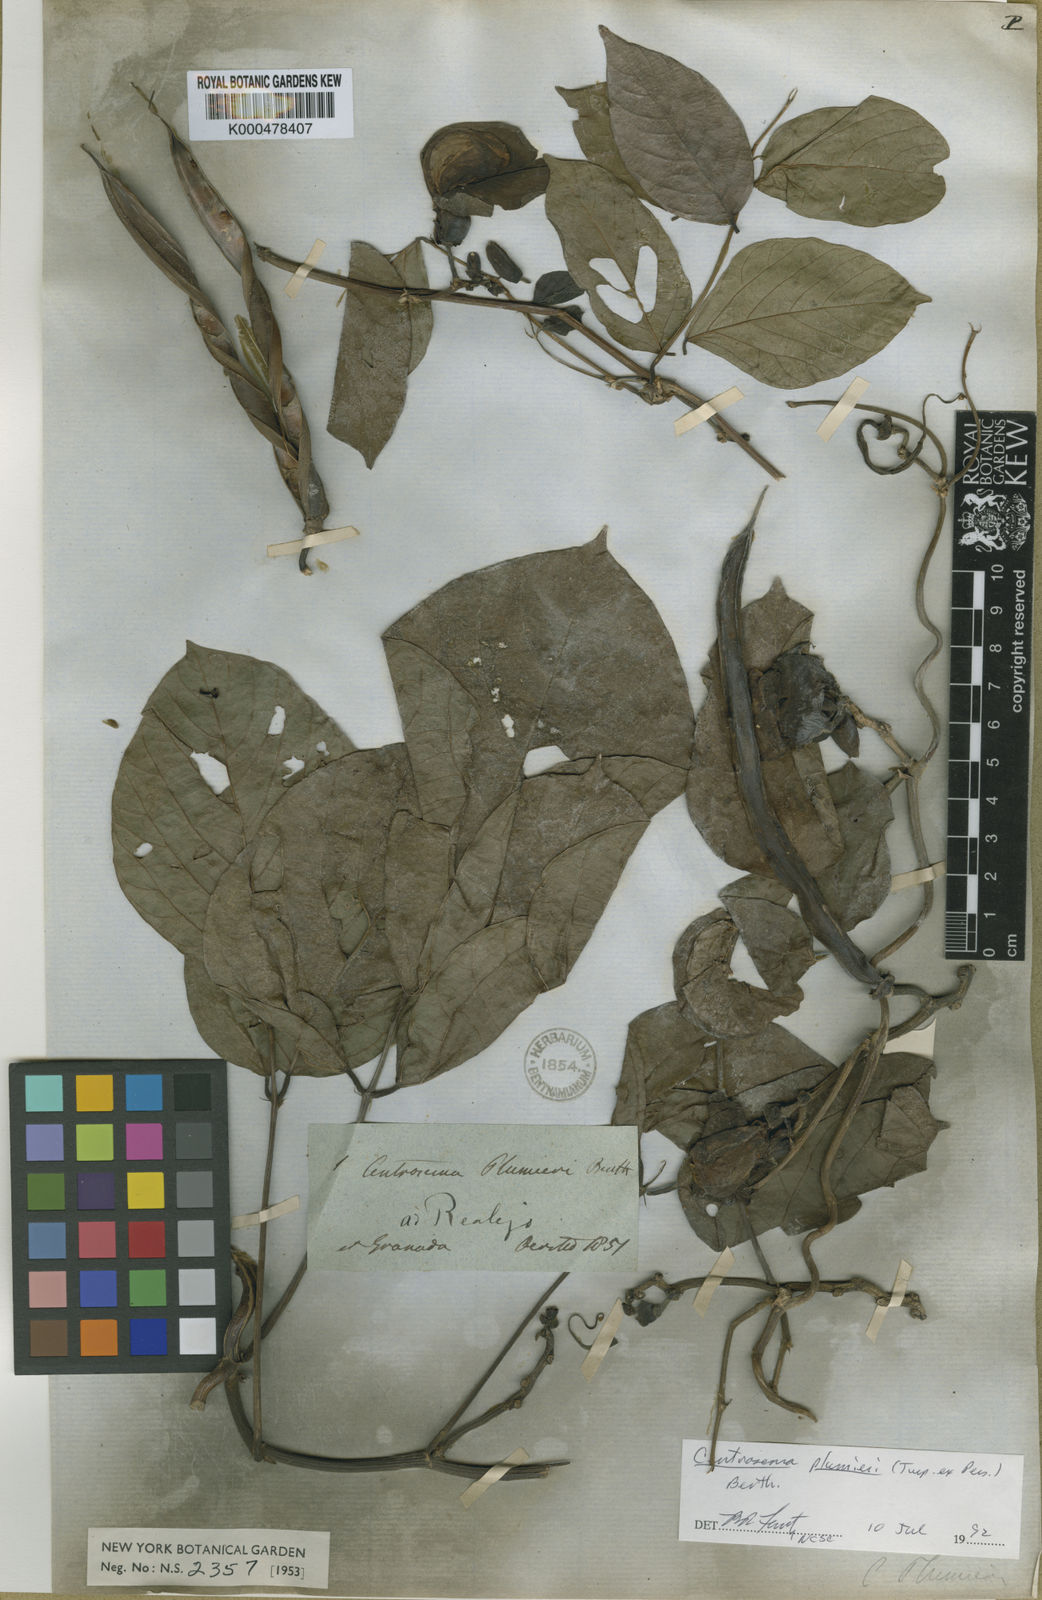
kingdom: Plantae
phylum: Tracheophyta
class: Magnoliopsida
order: Fabales
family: Fabaceae
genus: Centrosema
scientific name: Centrosema plumieri
